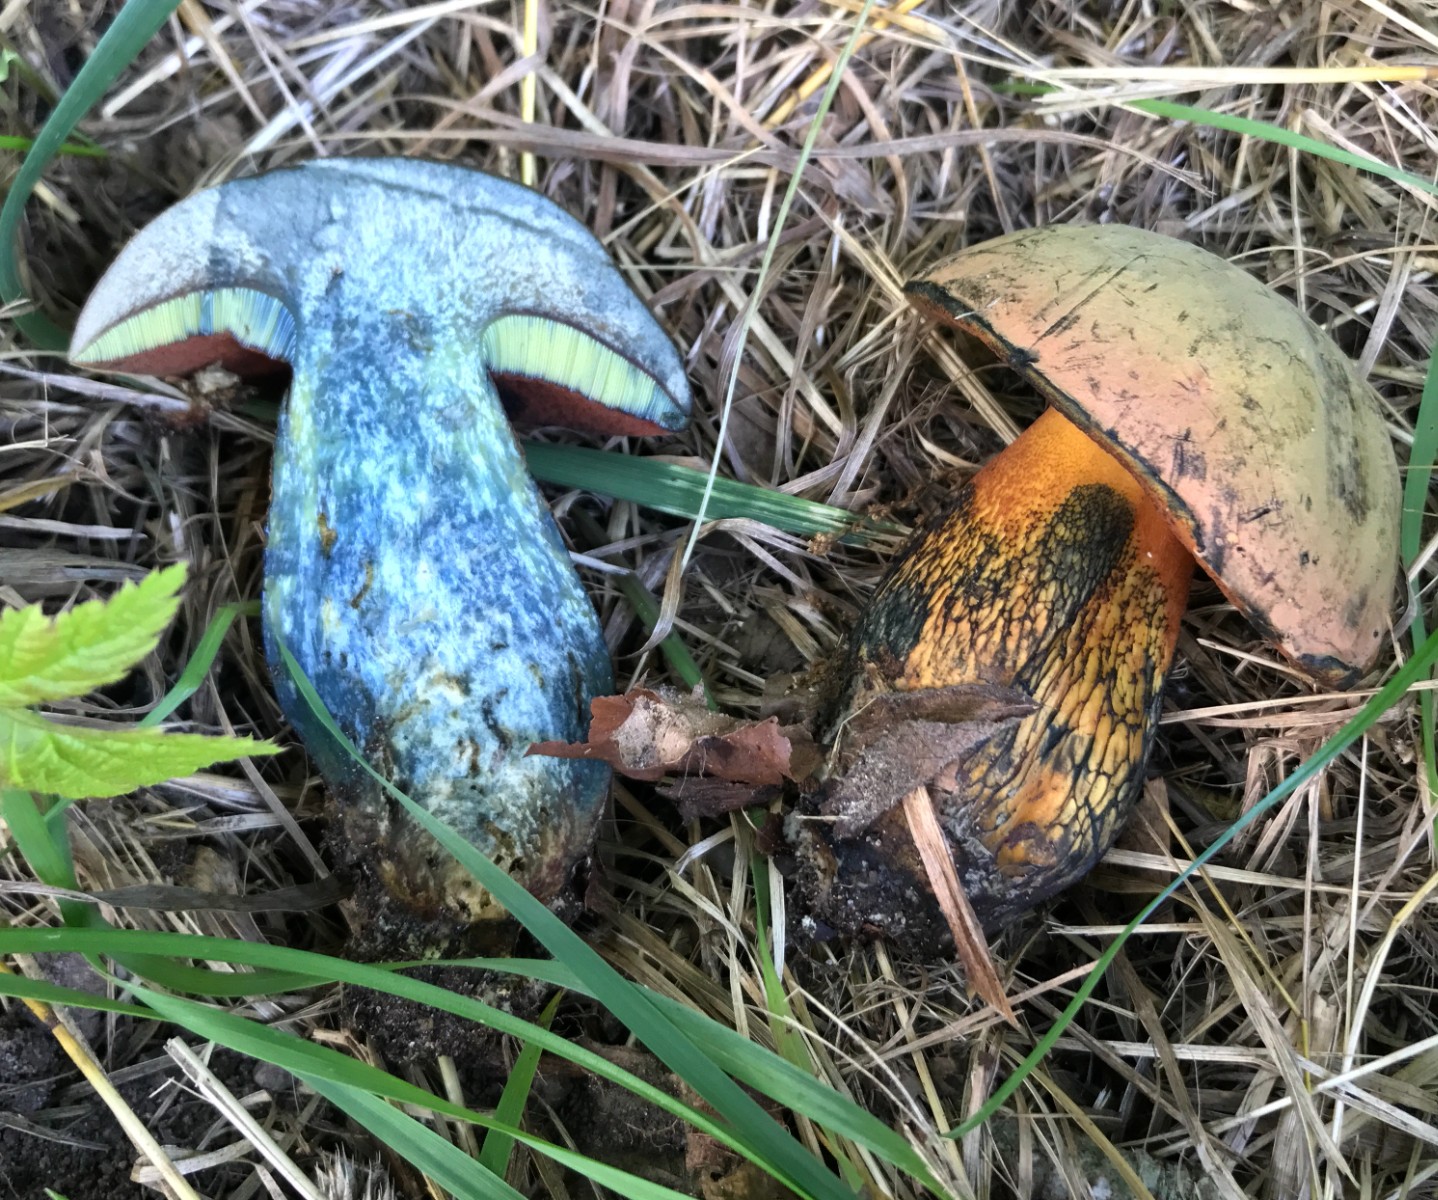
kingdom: Fungi
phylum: Basidiomycota
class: Agaricomycetes
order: Boletales
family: Boletaceae
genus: Suillellus
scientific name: Suillellus luridus
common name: netstokket indigorørhat
